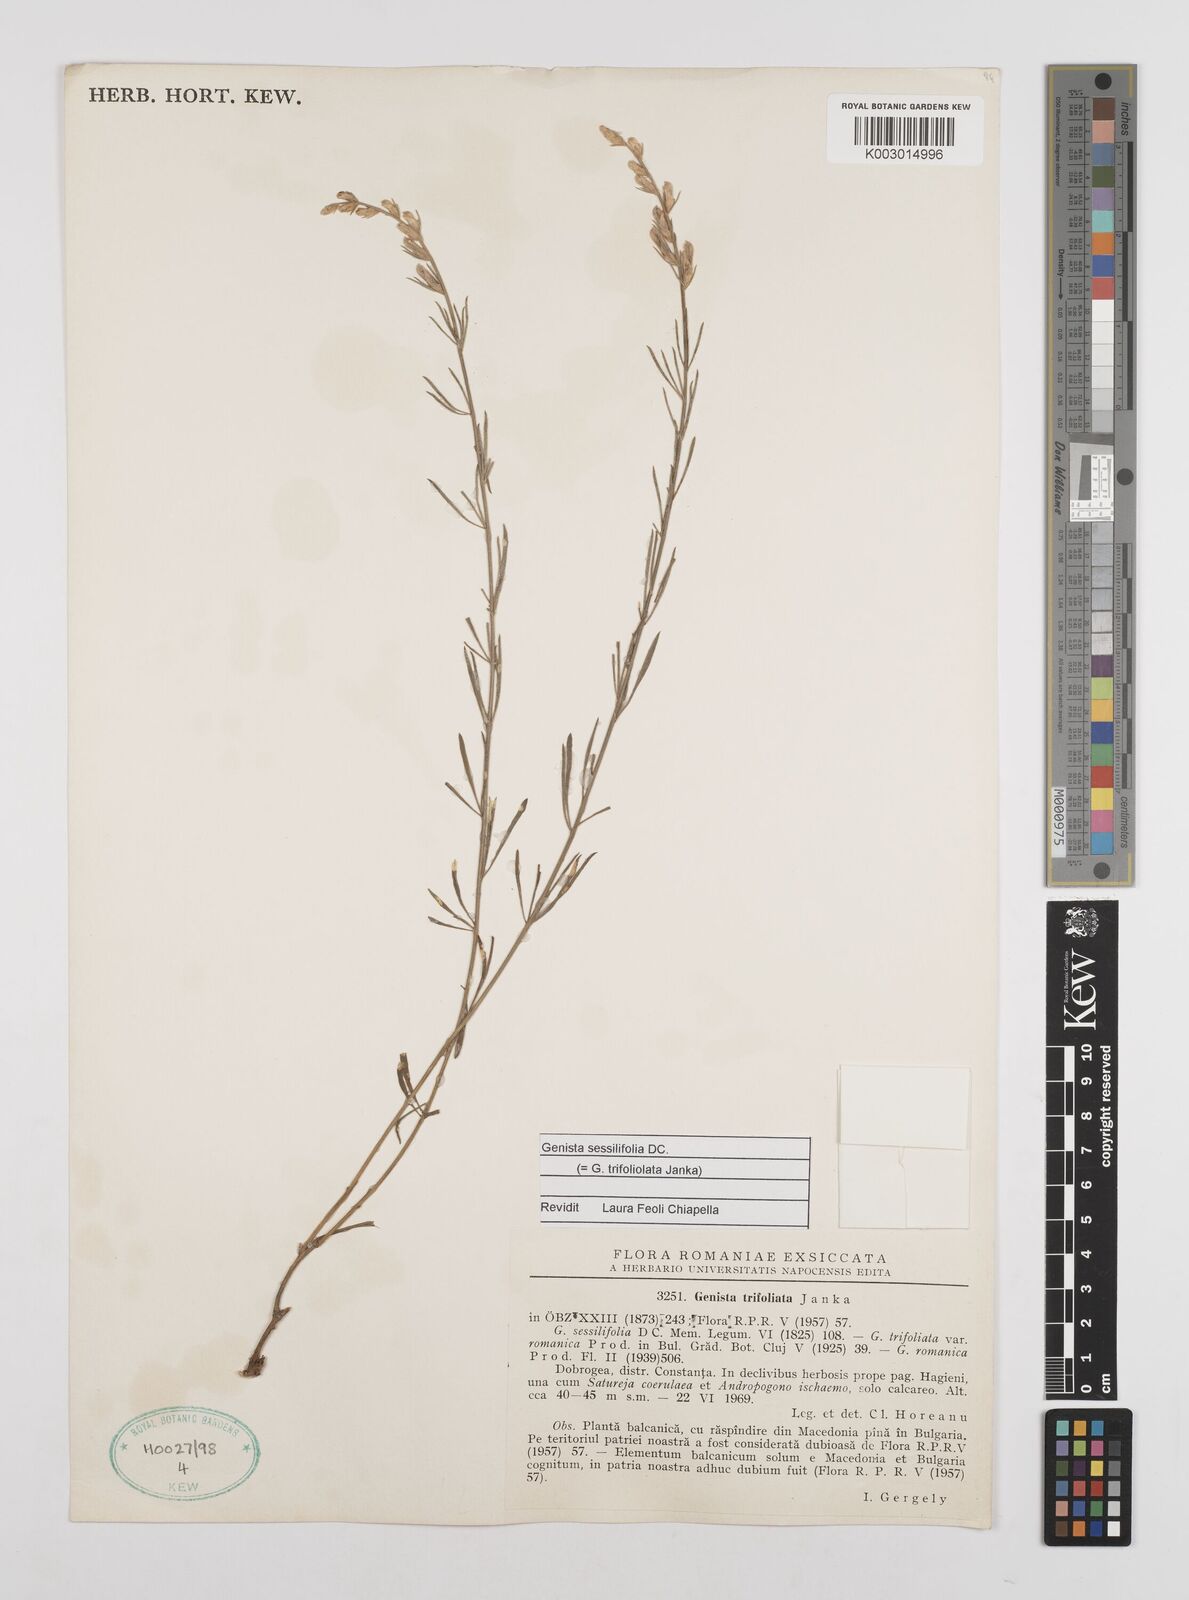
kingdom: Plantae
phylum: Tracheophyta
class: Magnoliopsida
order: Fabales
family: Fabaceae
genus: Genista
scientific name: Genista sessilifolia
